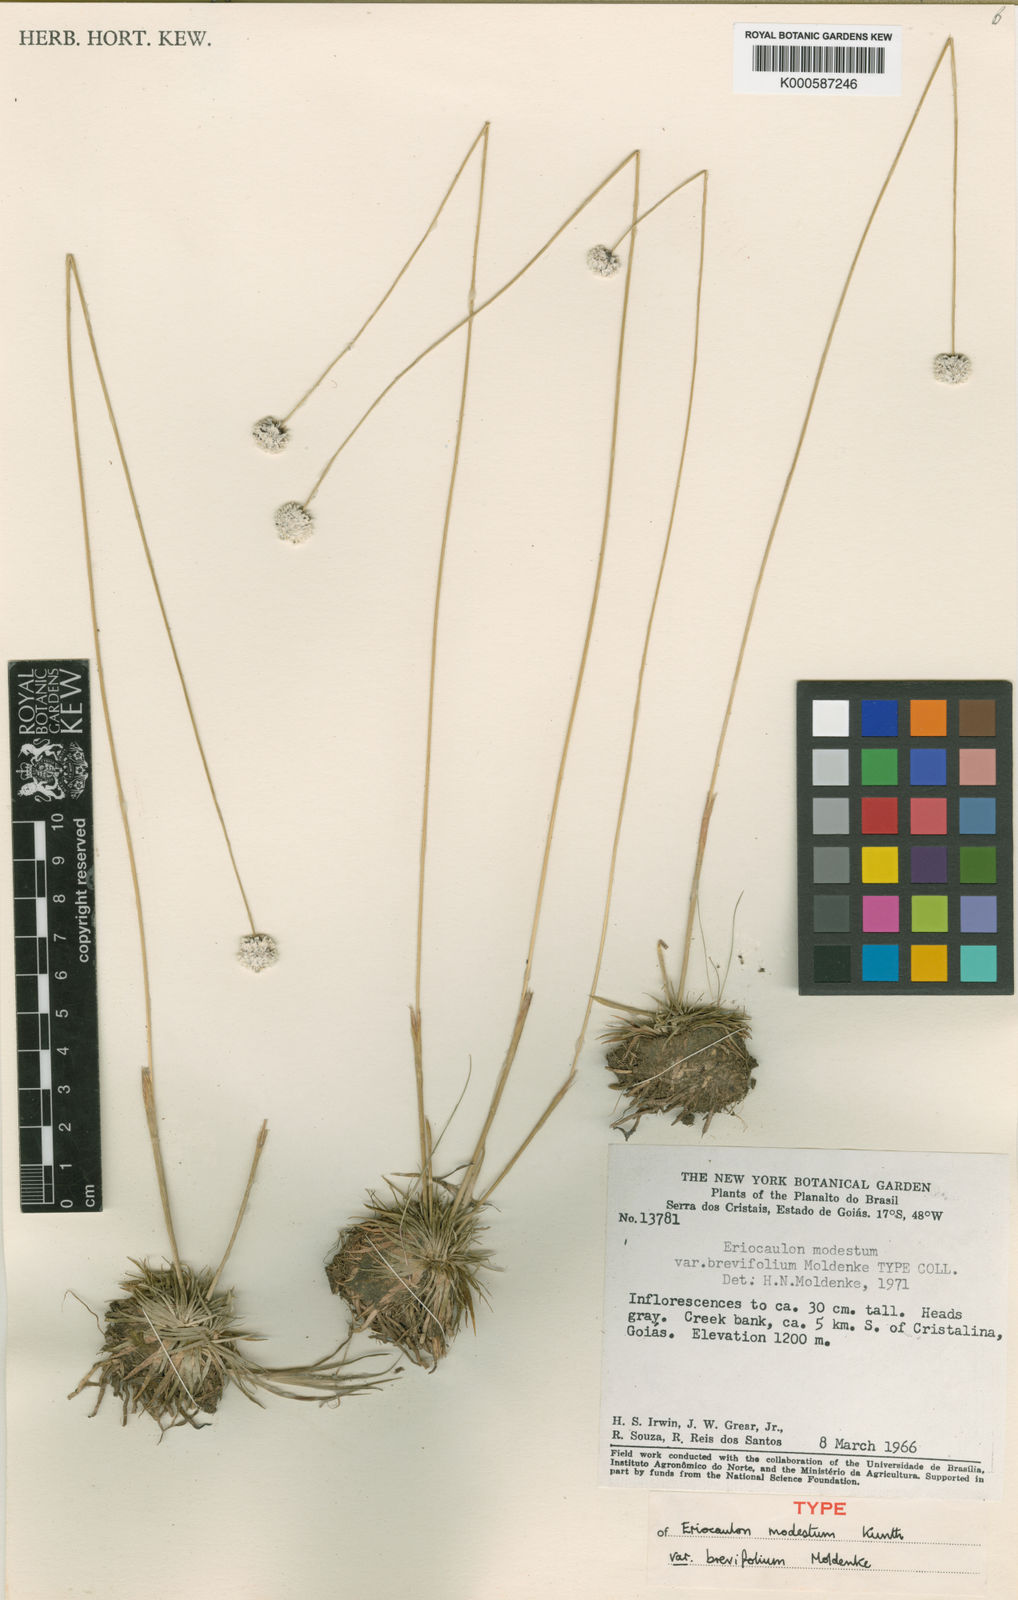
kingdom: Plantae
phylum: Tracheophyta
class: Liliopsida
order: Poales
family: Eriocaulaceae
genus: Eriocaulon
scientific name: Eriocaulon candango
